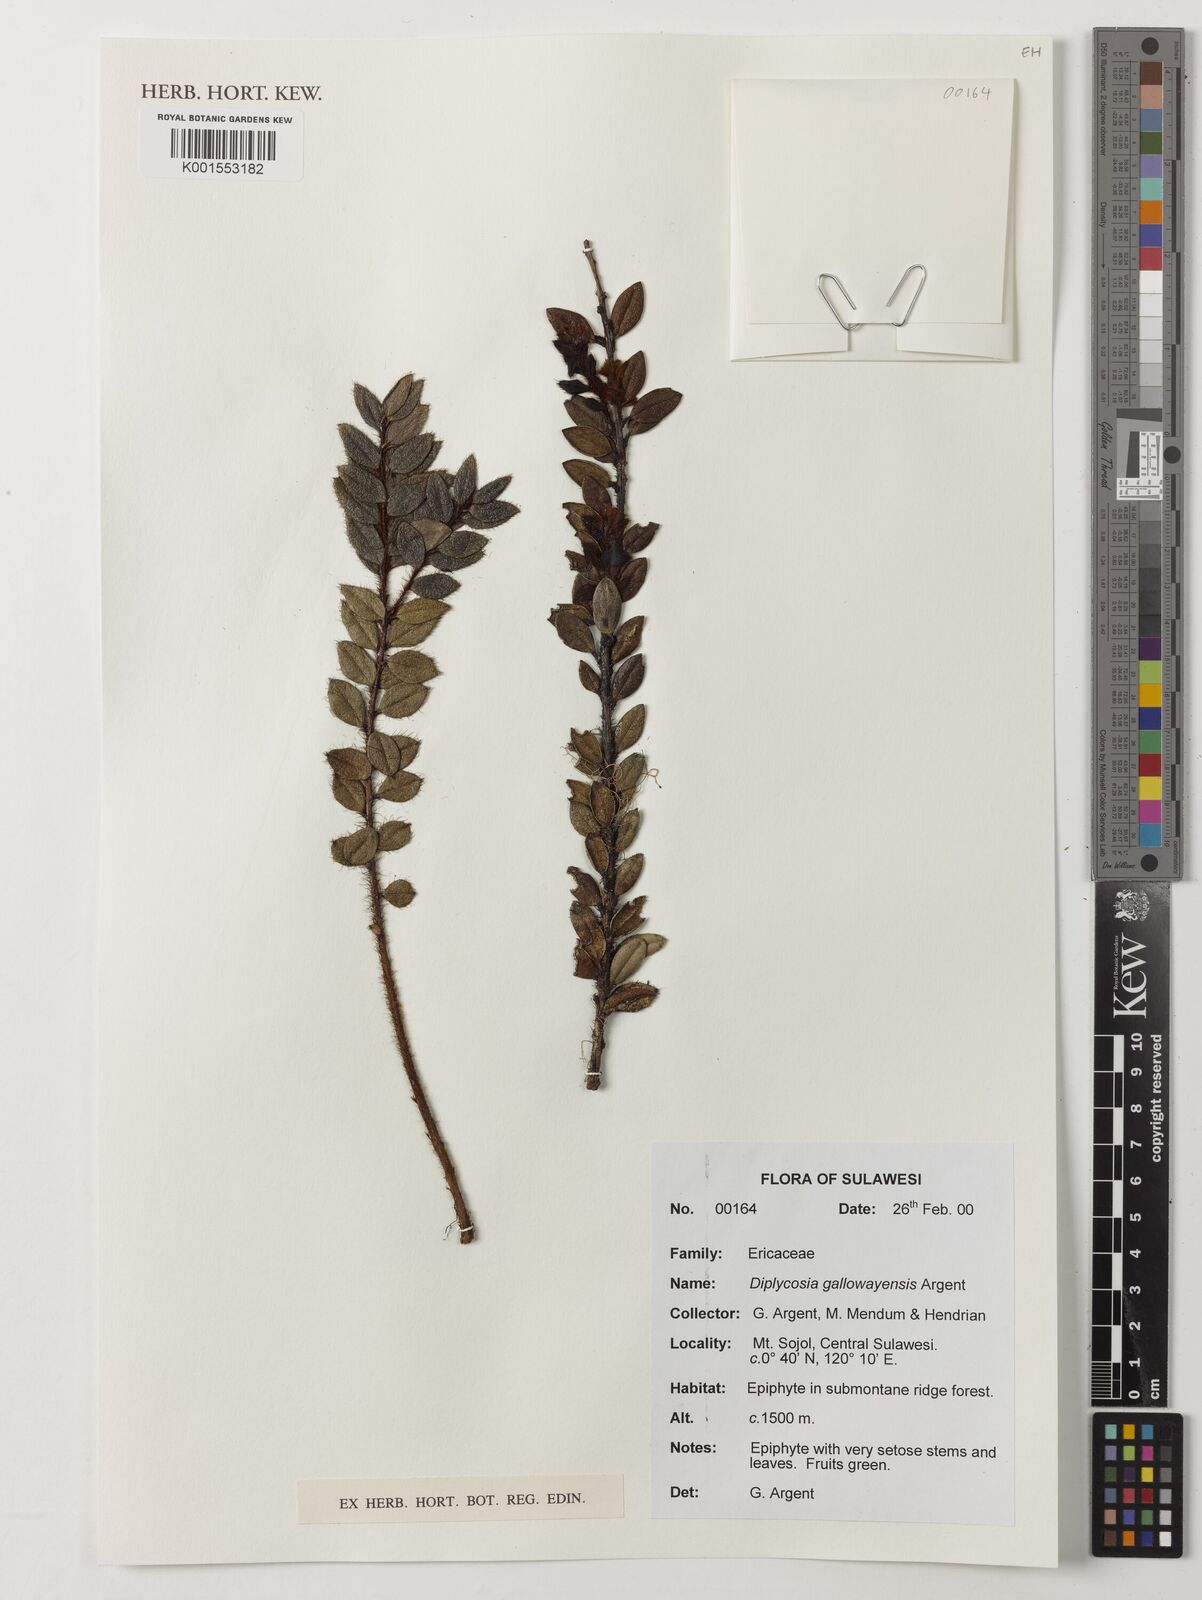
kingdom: Plantae
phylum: Tracheophyta
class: Magnoliopsida
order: Ericales
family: Ericaceae
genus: Gaultheria
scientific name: Gaultheria
